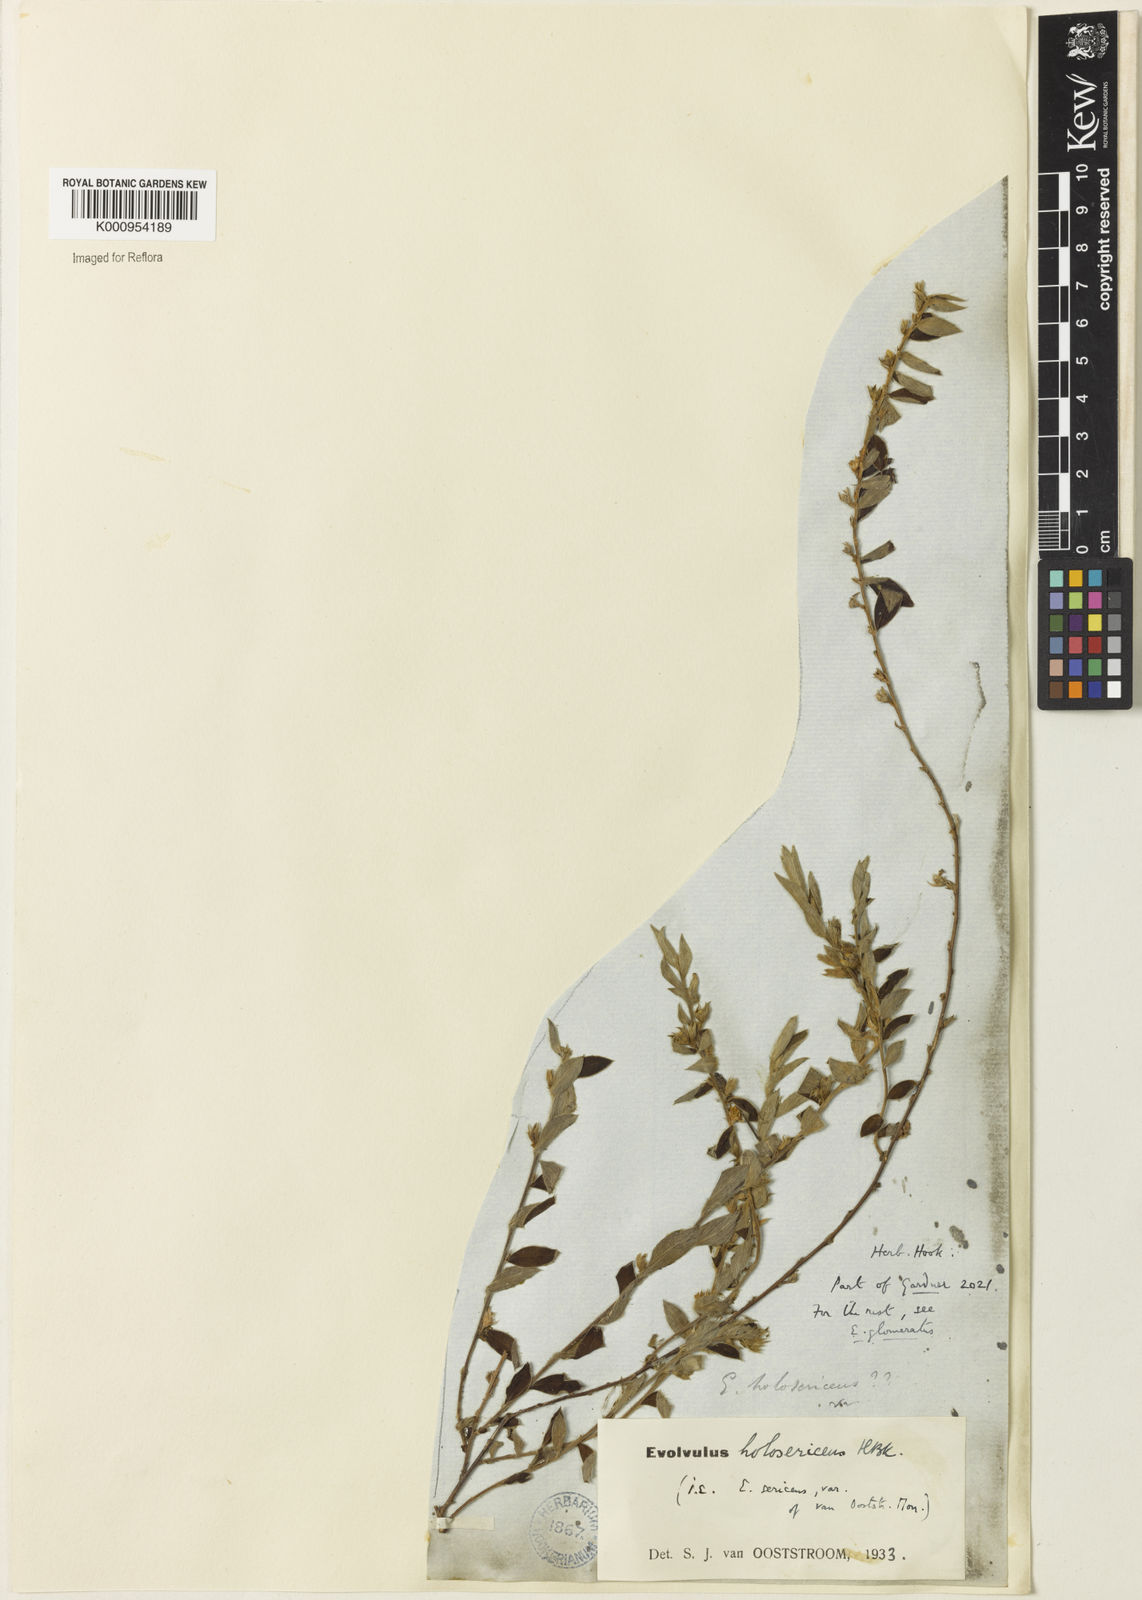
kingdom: Plantae
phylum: Tracheophyta
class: Magnoliopsida
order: Solanales
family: Convolvulaceae
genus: Evolvulus
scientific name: Evolvulus
